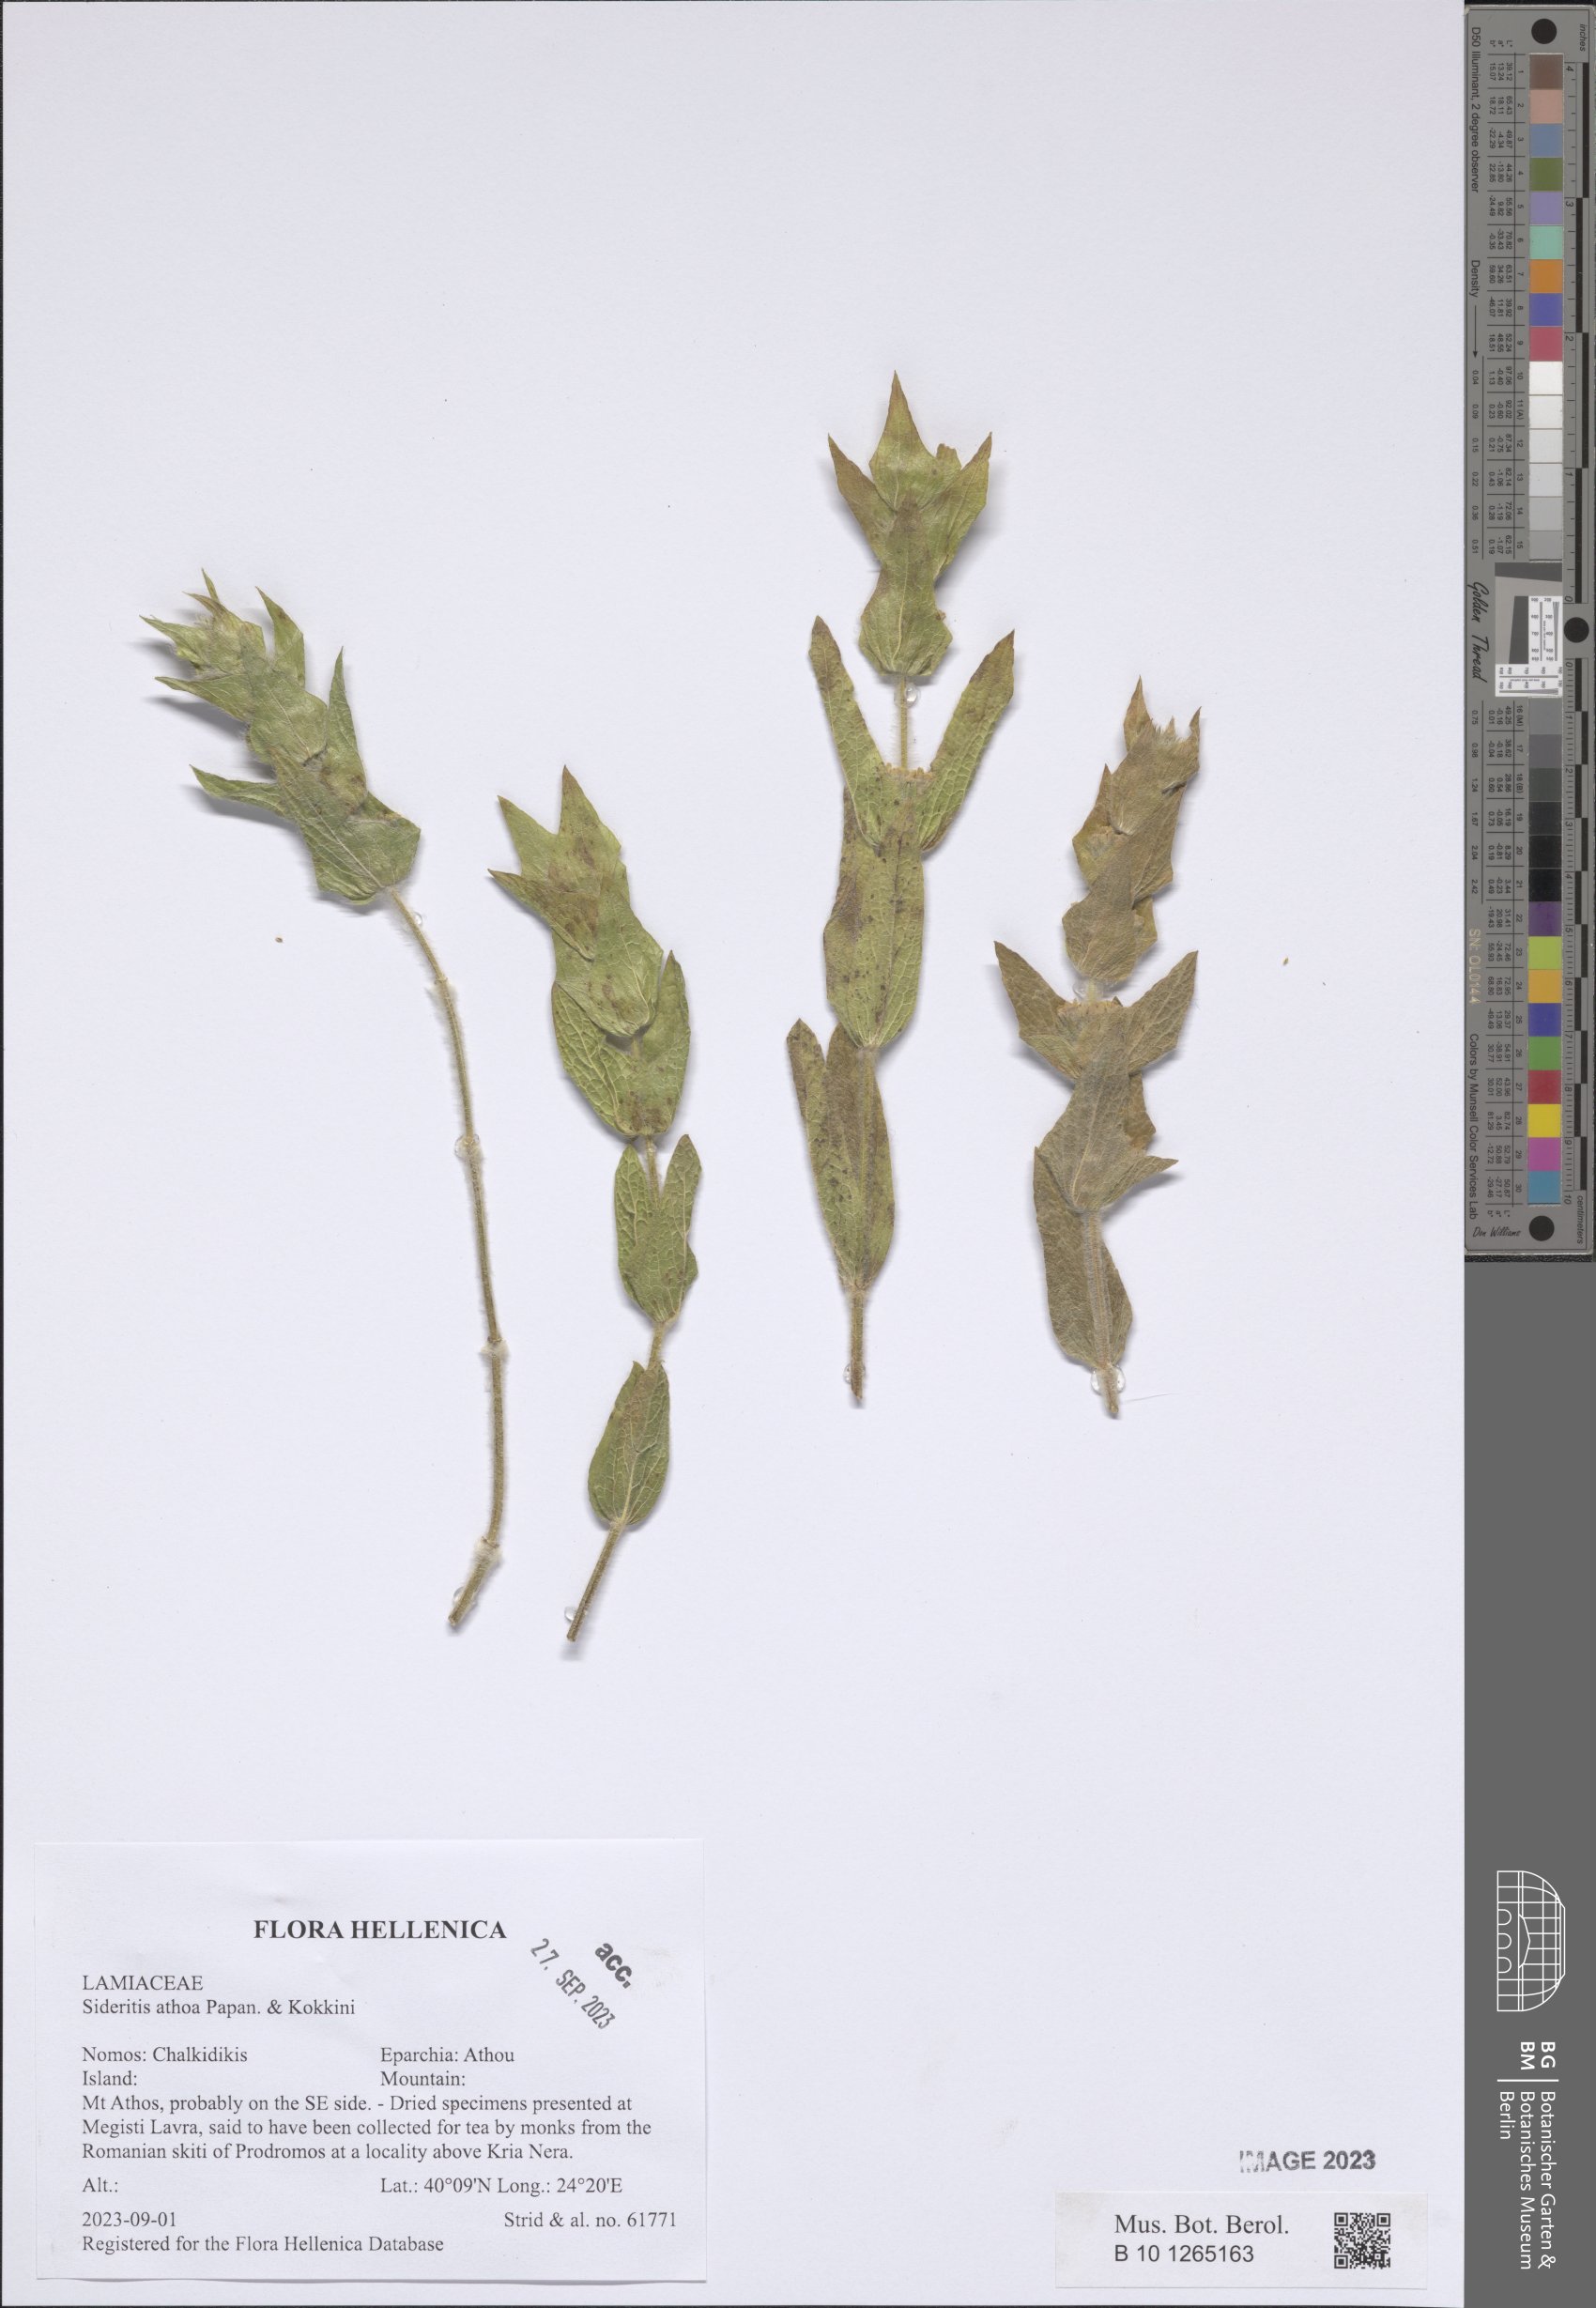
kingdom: Plantae
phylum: Tracheophyta
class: Magnoliopsida
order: Lamiales
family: Lamiaceae
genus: Sideritis
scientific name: Sideritis perfoliata
